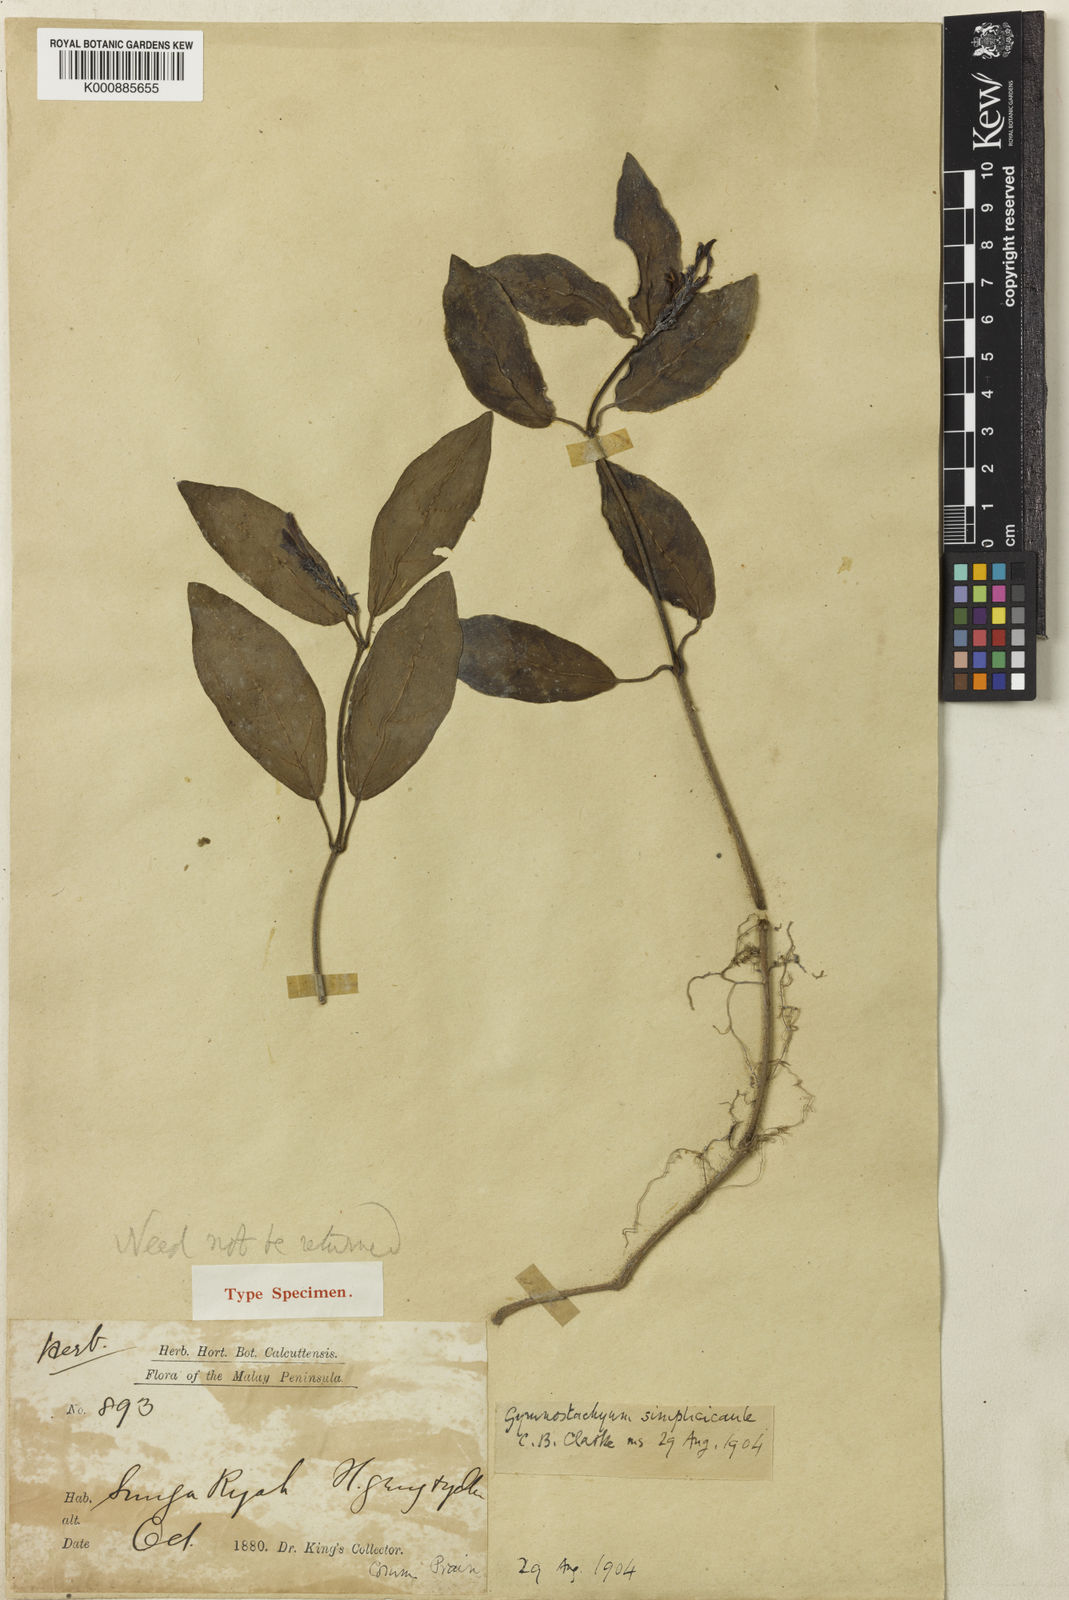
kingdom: Plantae
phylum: Tracheophyta
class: Magnoliopsida
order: Lamiales
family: Acanthaceae
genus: Gymnostachyum
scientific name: Gymnostachyum simplicicaule
